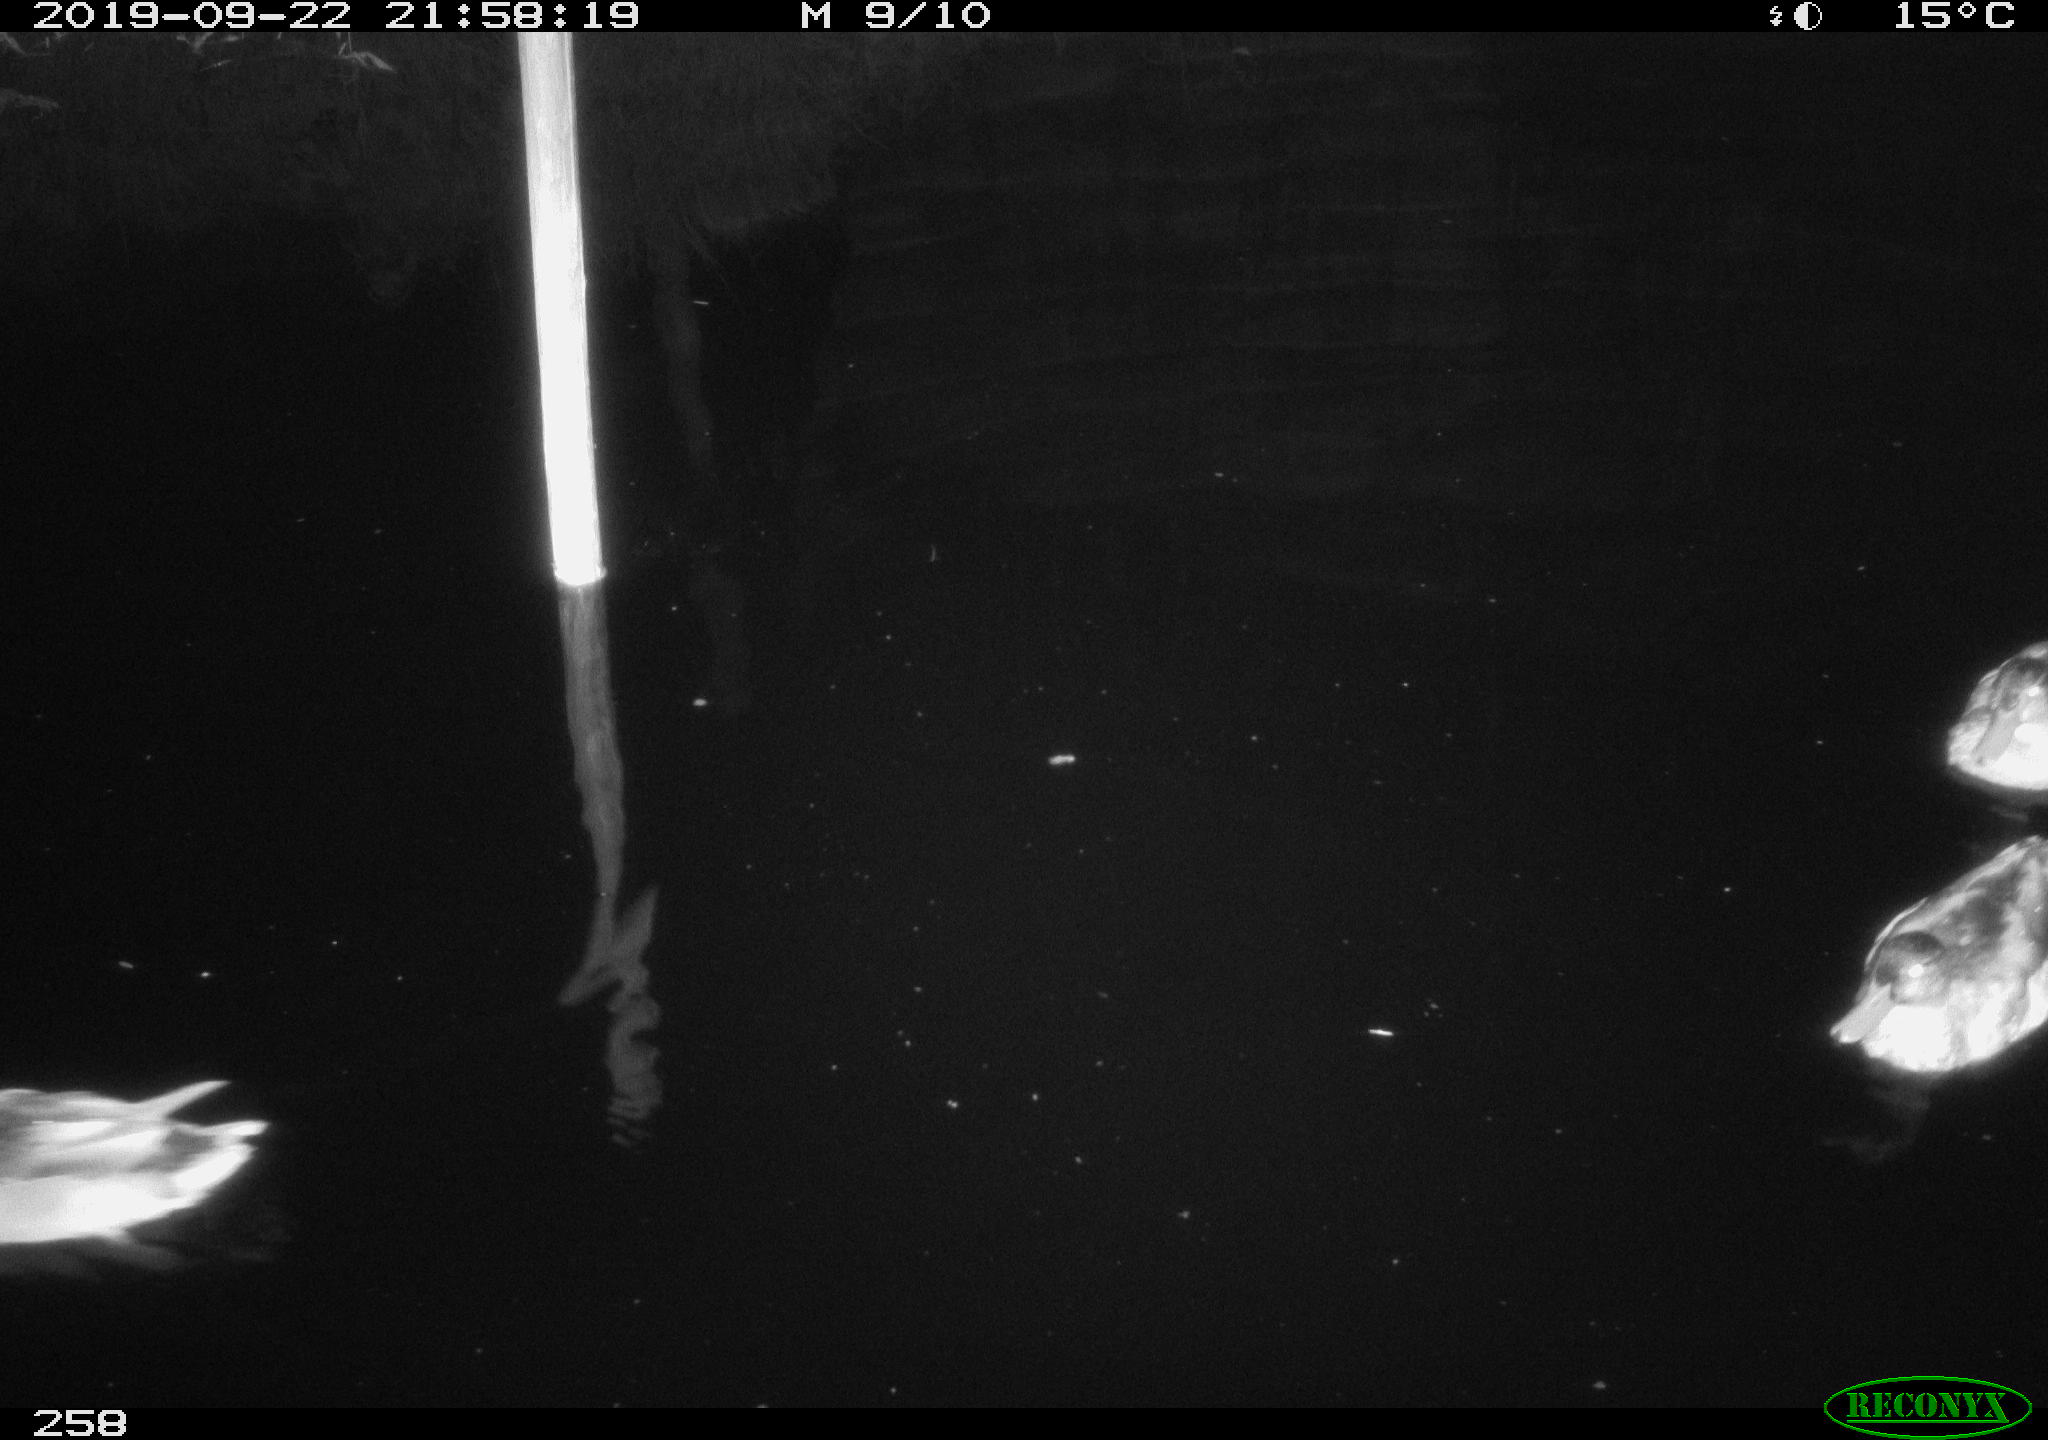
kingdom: Animalia
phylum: Chordata
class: Aves
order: Anseriformes
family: Anatidae
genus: Anas
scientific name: Anas platyrhynchos
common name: Mallard
